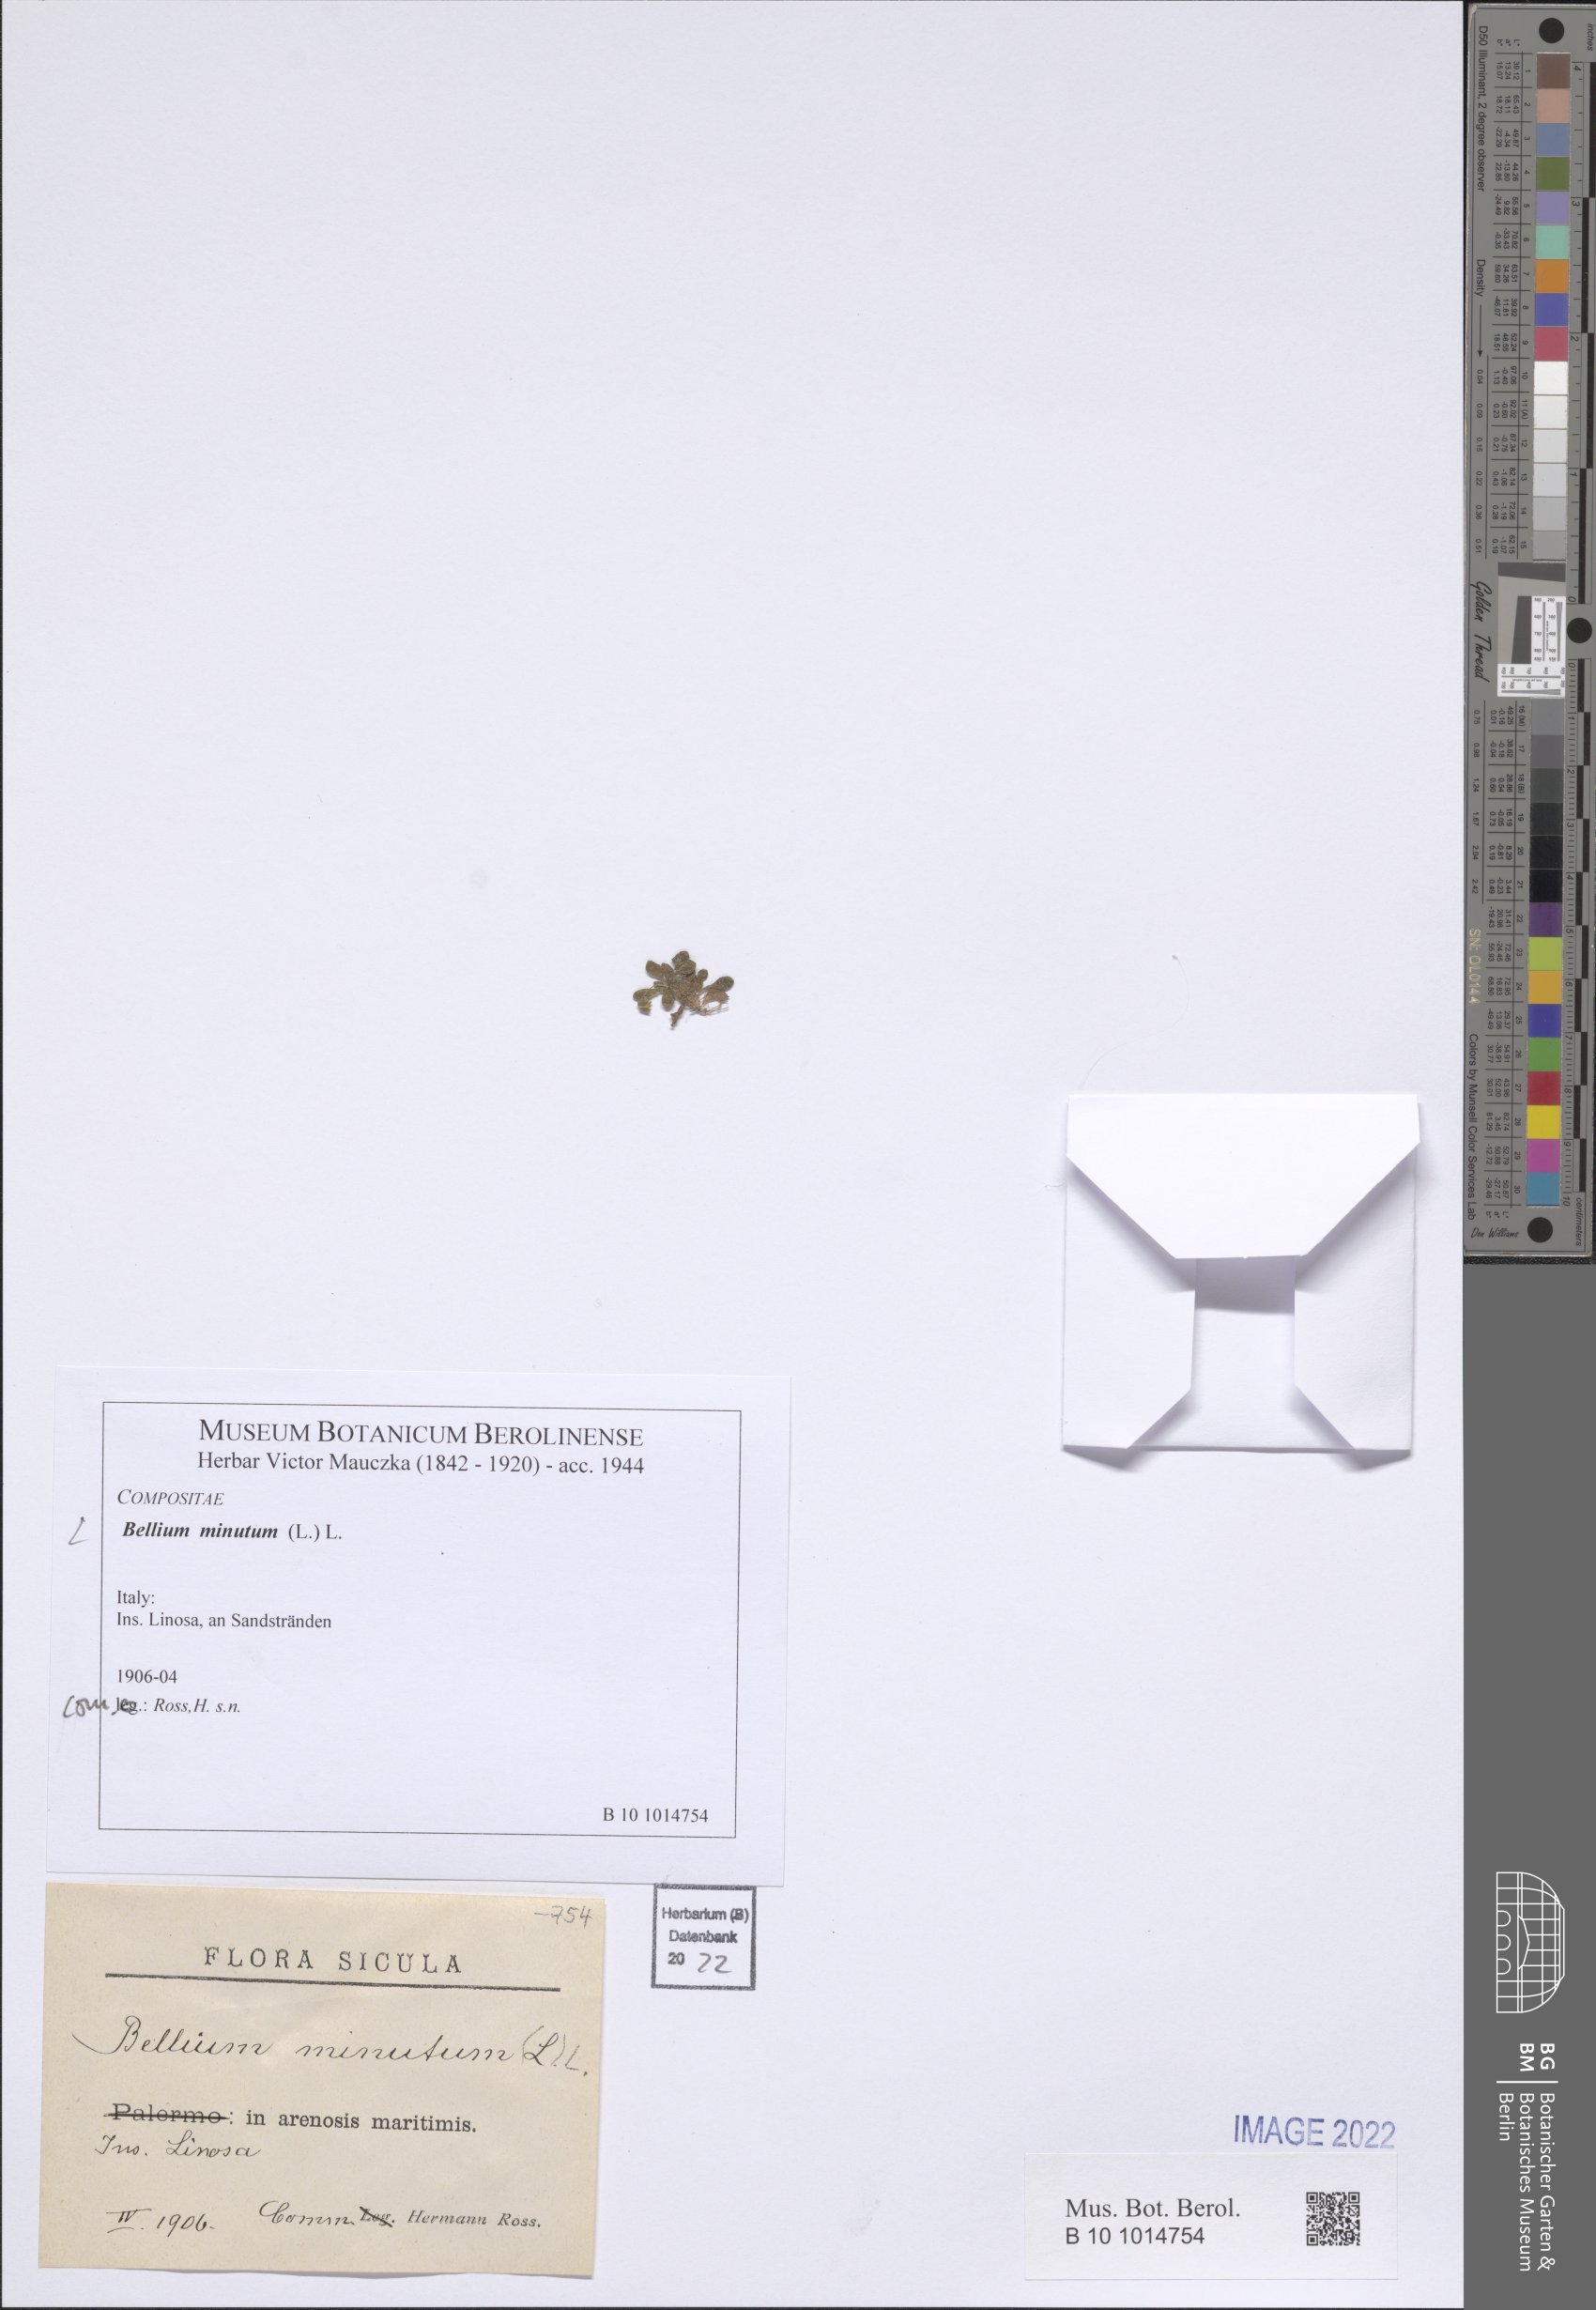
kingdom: Plantae
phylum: Tracheophyta
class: Magnoliopsida
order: Asterales
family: Asteraceae
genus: Bellium
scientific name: Bellium minutum
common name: Little-mary
